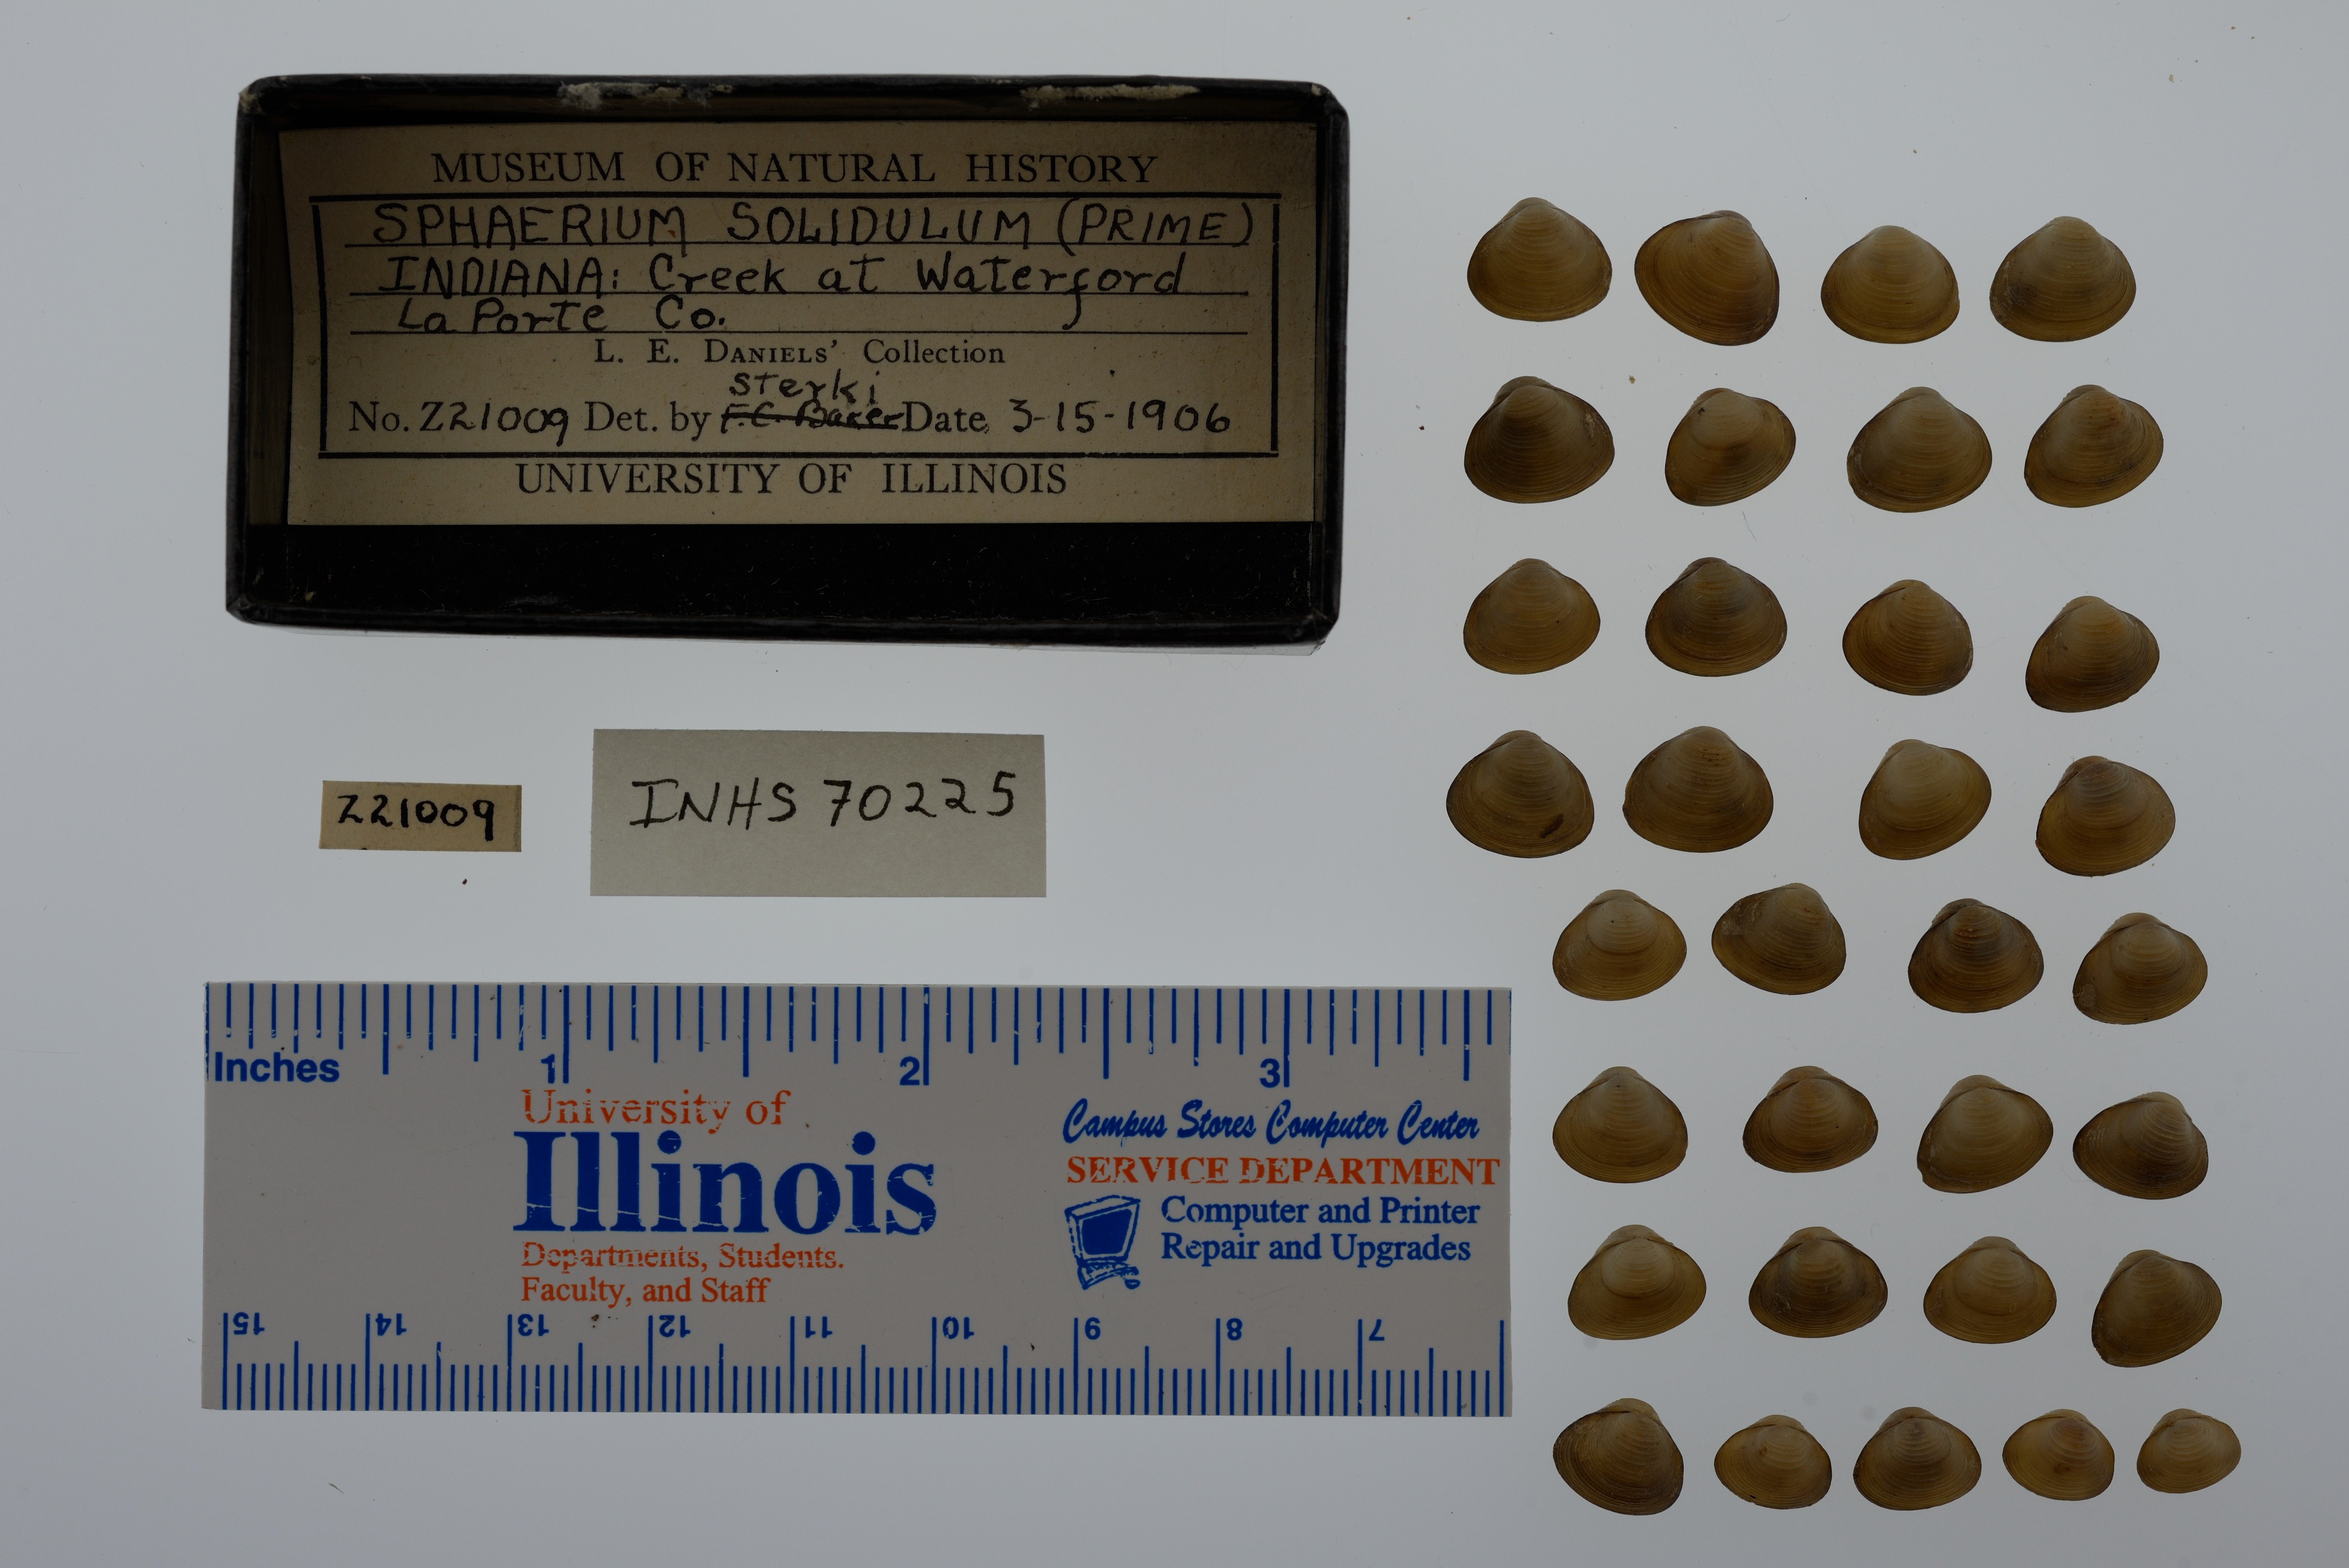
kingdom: Animalia
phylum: Mollusca
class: Bivalvia
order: Sphaeriida
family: Sphaeriidae
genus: Sphaerium
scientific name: Sphaerium striatinum
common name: Striated fingernailclam
